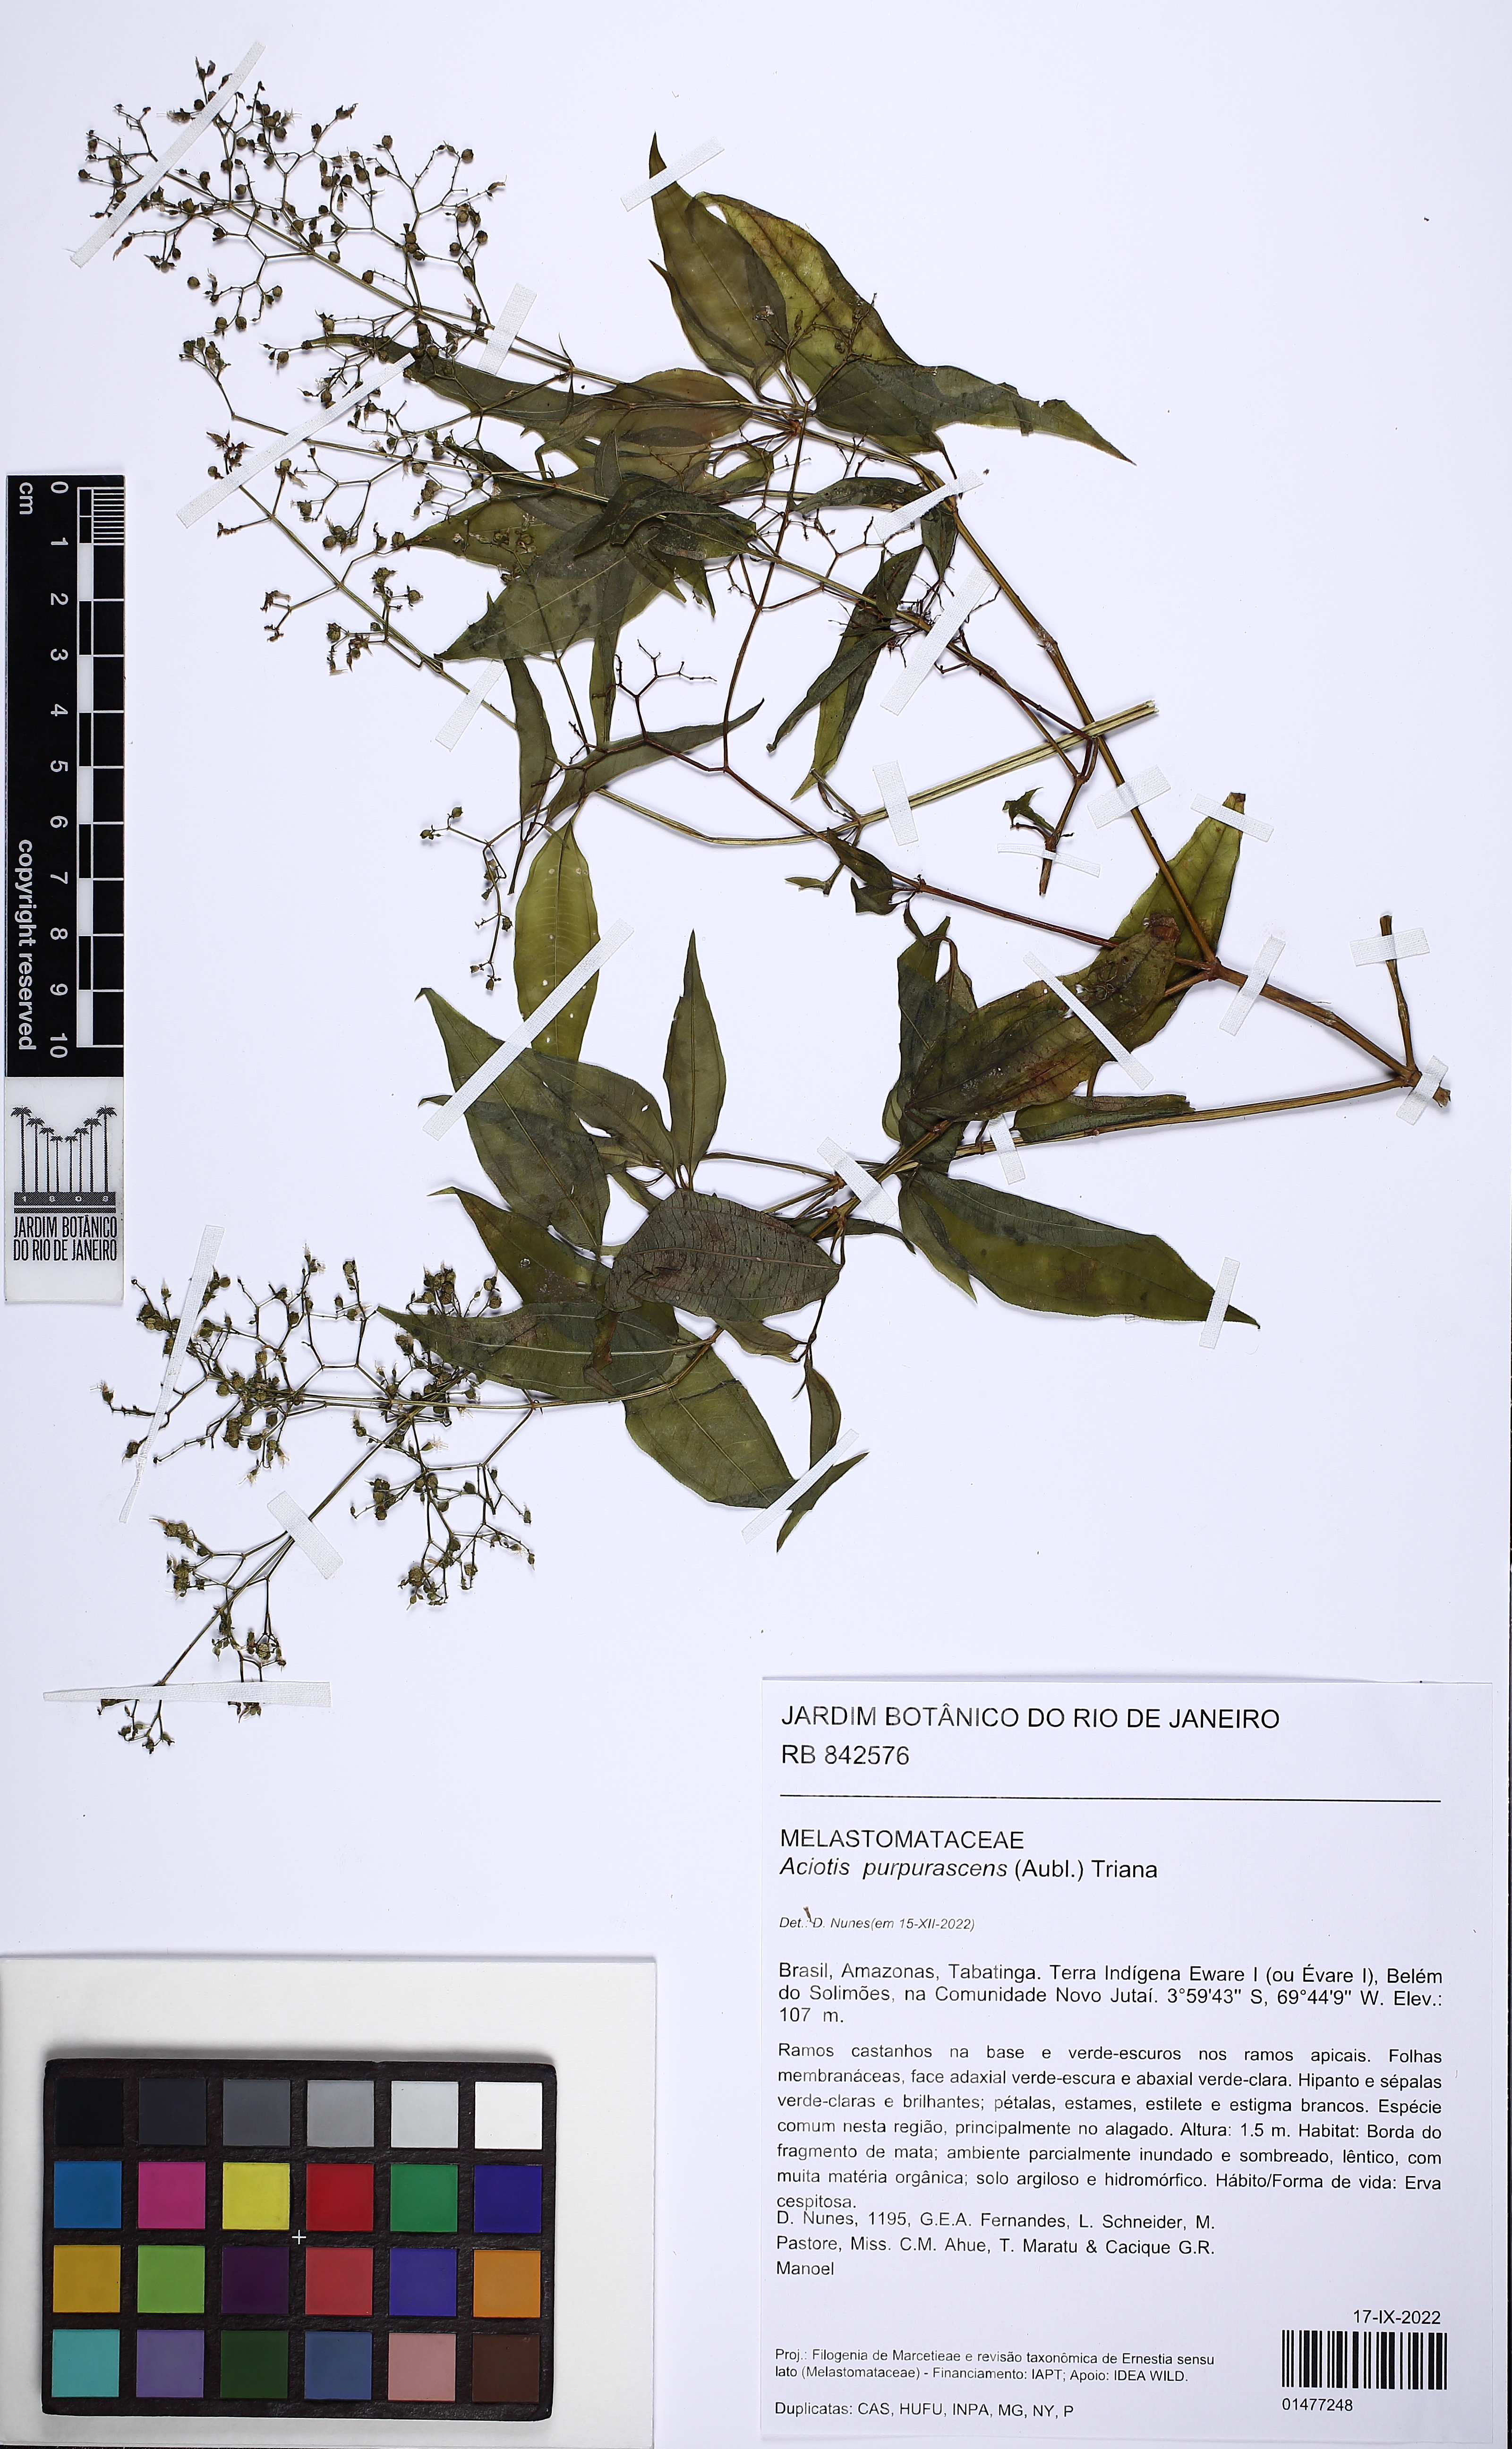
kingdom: Plantae
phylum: Tracheophyta
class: Magnoliopsida
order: Myrtales
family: Melastomataceae
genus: Aciotis
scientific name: Aciotis purpurascens
